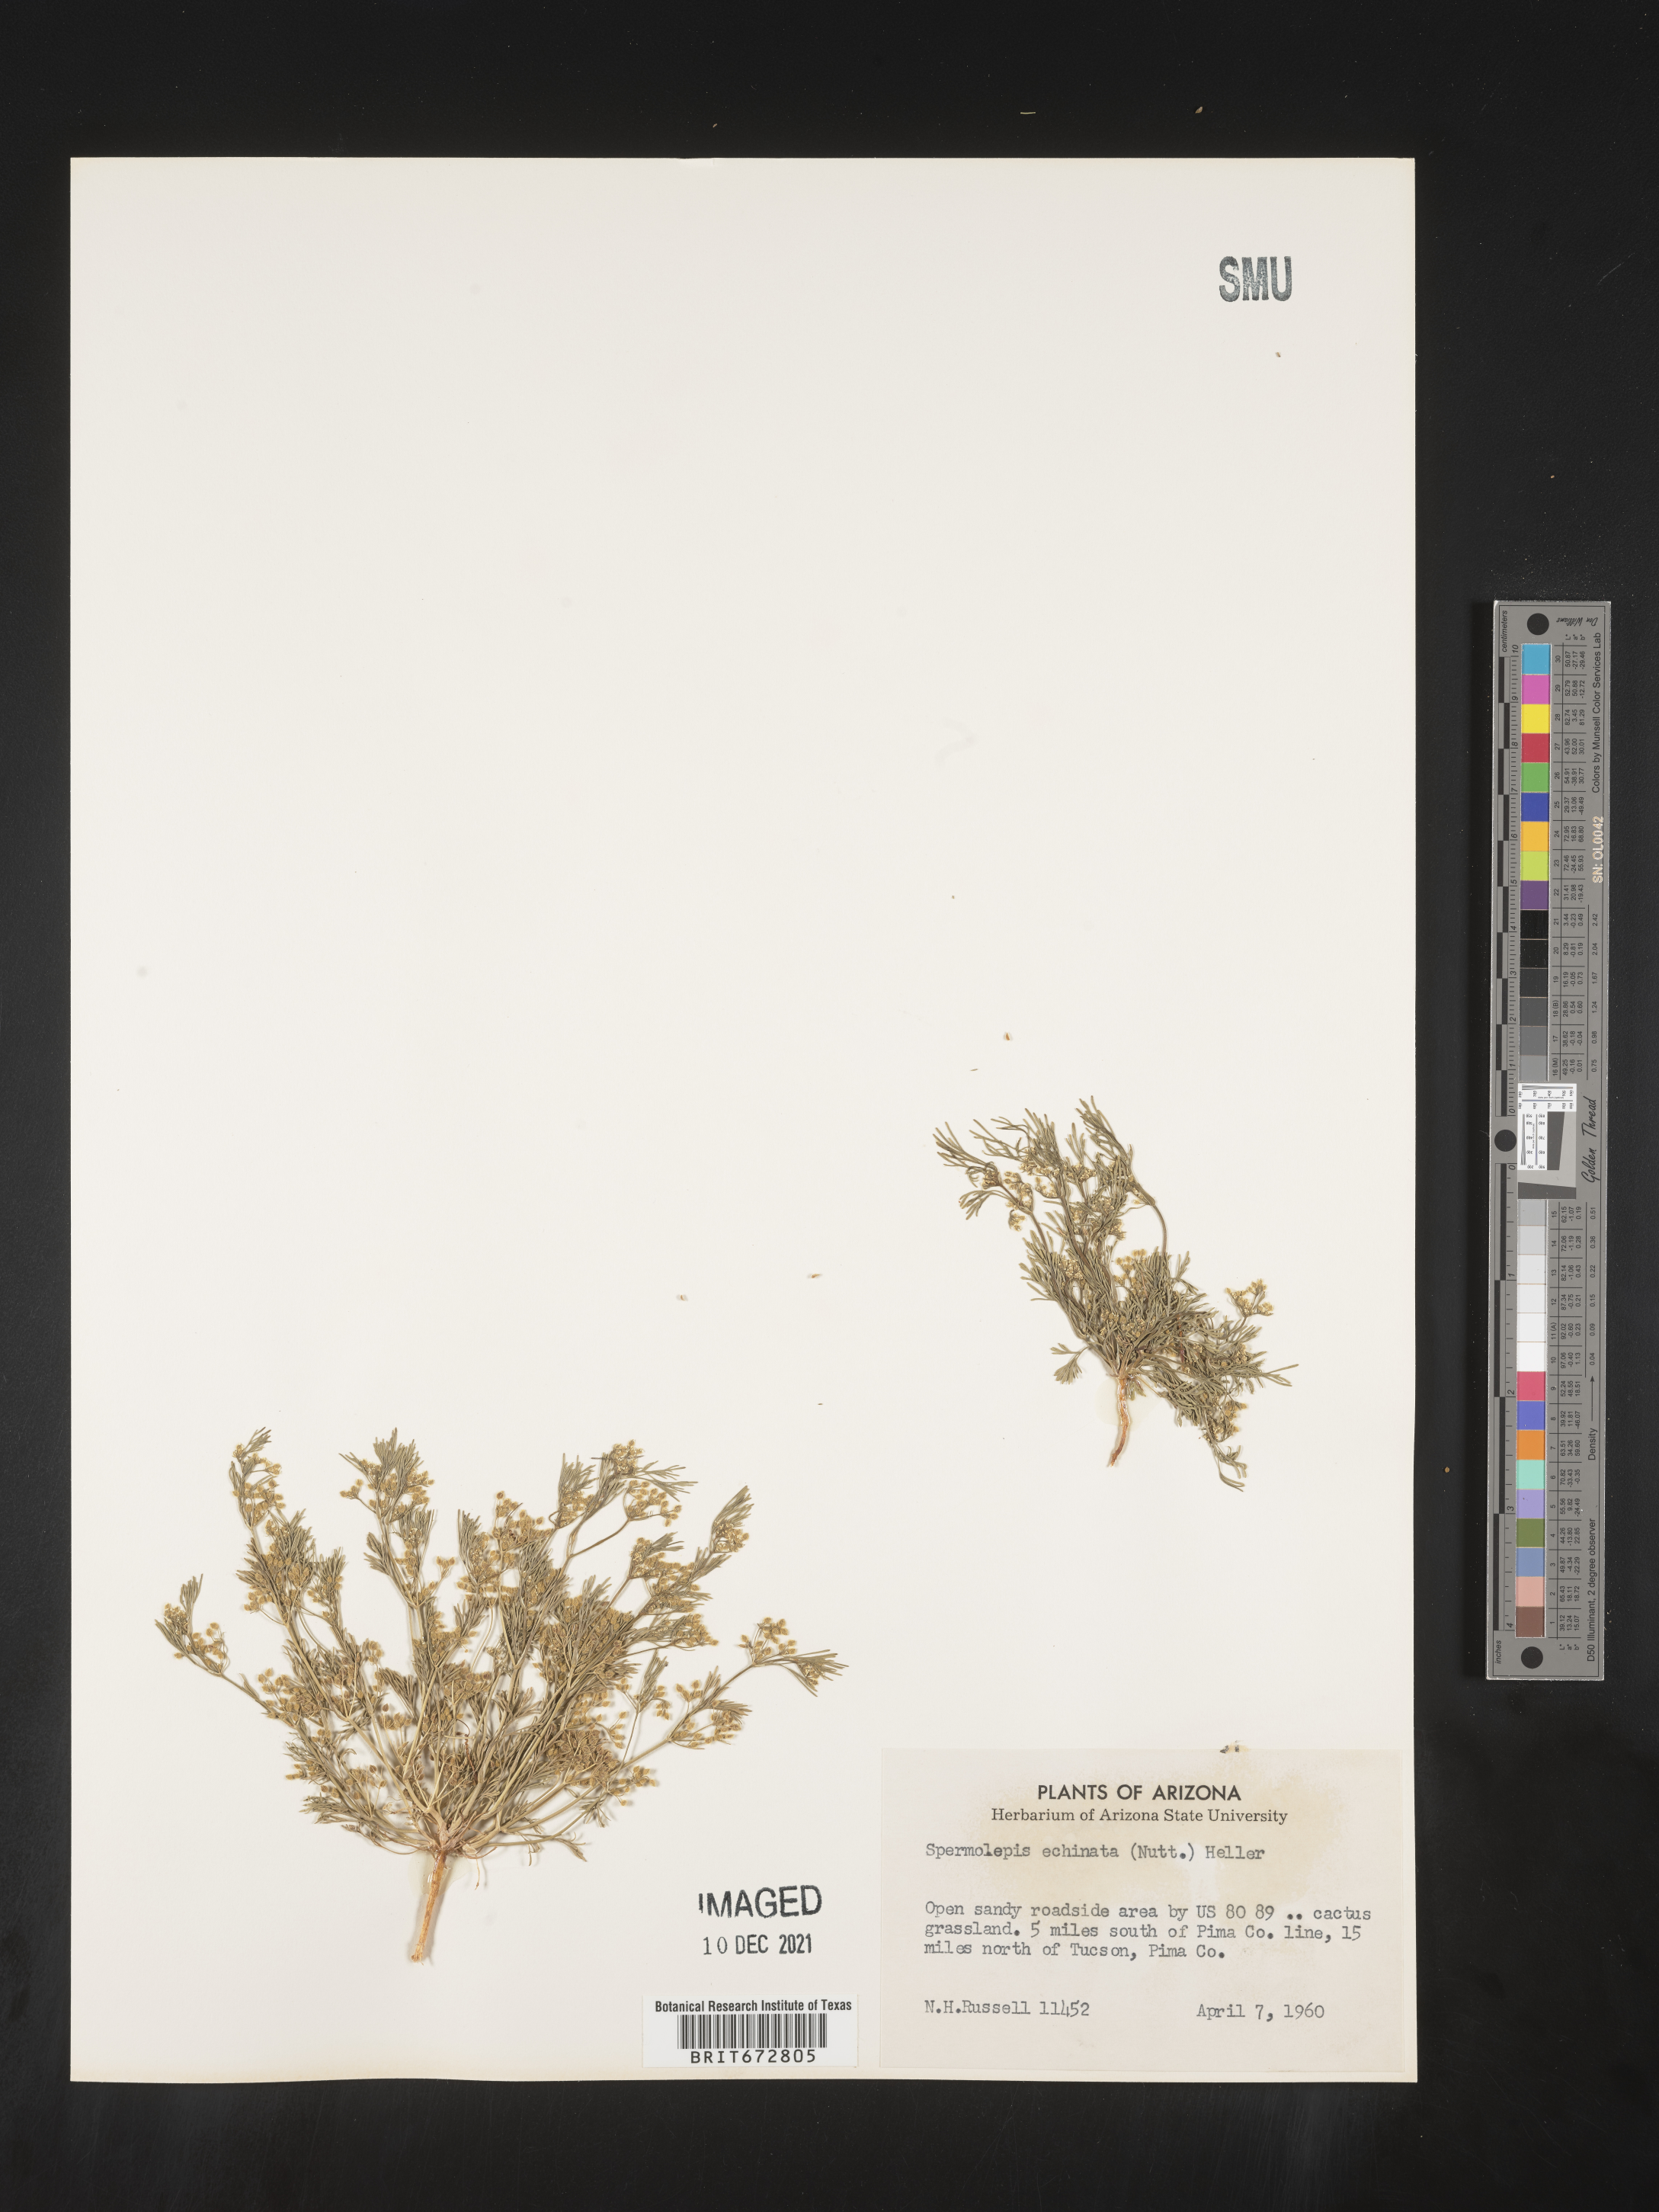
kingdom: Plantae
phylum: Tracheophyta
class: Magnoliopsida
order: Apiales
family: Apiaceae
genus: Spermolepis
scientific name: Spermolepis echinatus
